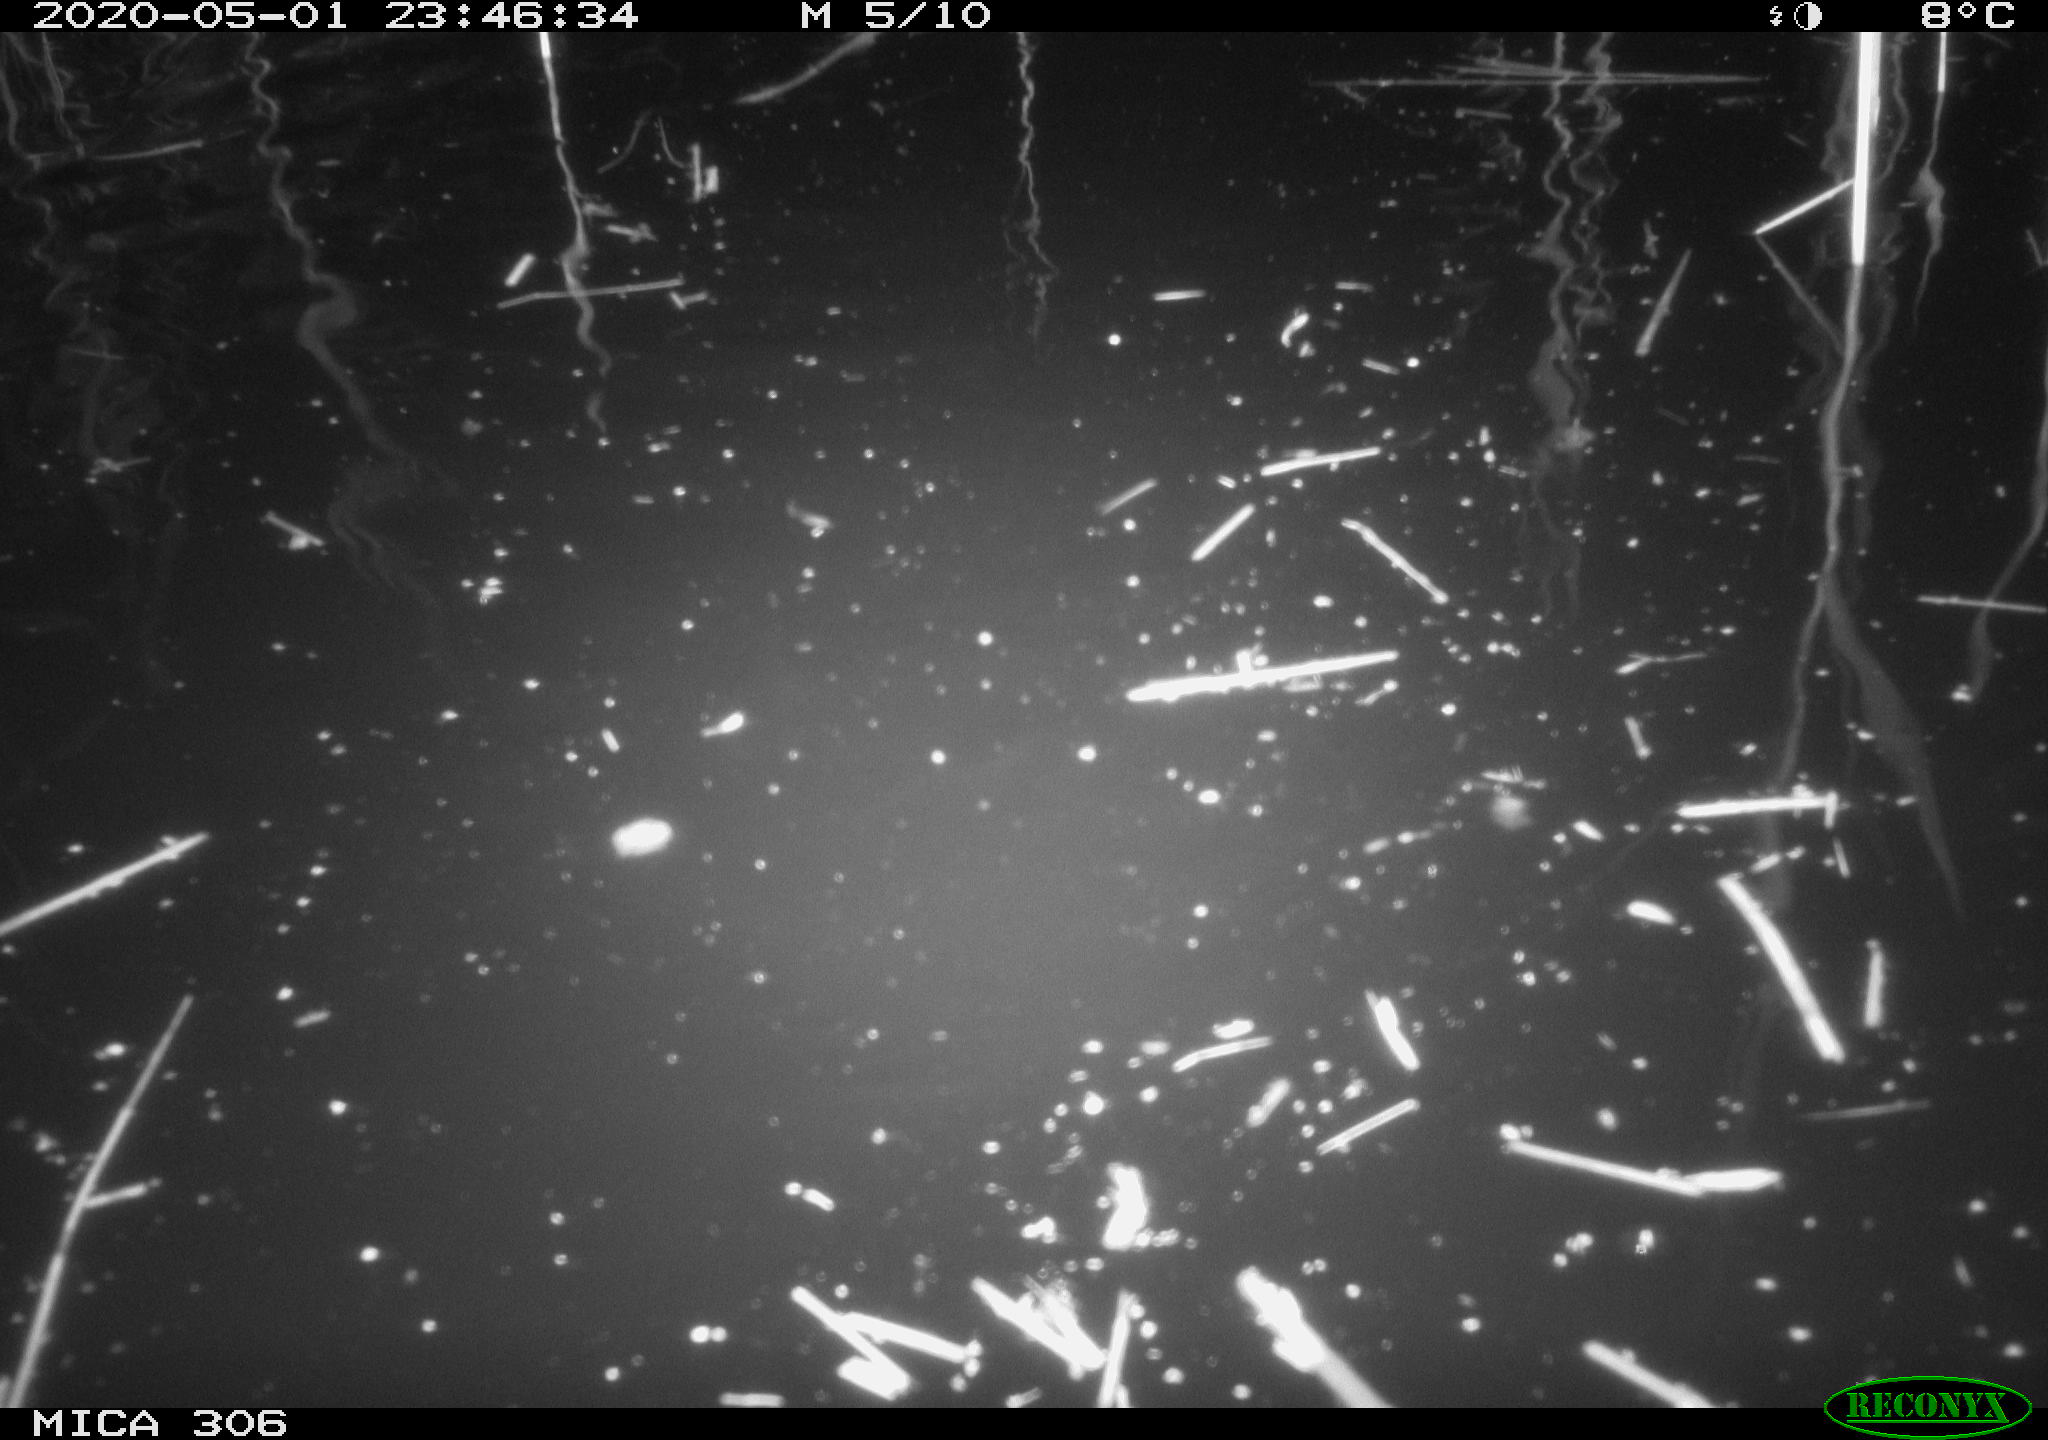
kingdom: Animalia
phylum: Chordata
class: Mammalia
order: Rodentia
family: Cricetidae
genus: Ondatra
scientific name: Ondatra zibethicus
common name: Muskrat
